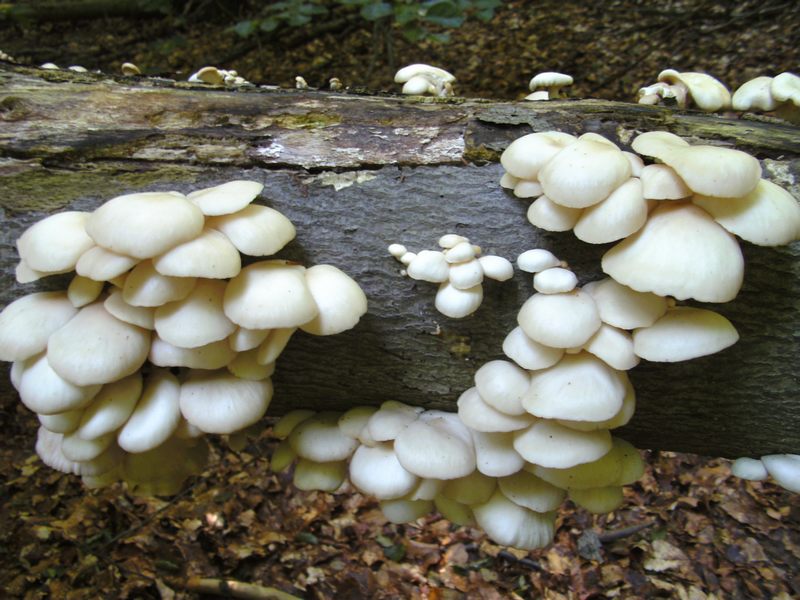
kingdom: Fungi
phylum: Basidiomycota
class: Agaricomycetes
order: Agaricales
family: Pleurotaceae
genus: Pleurotus
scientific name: Pleurotus pulmonarius
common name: sommer-østershat
